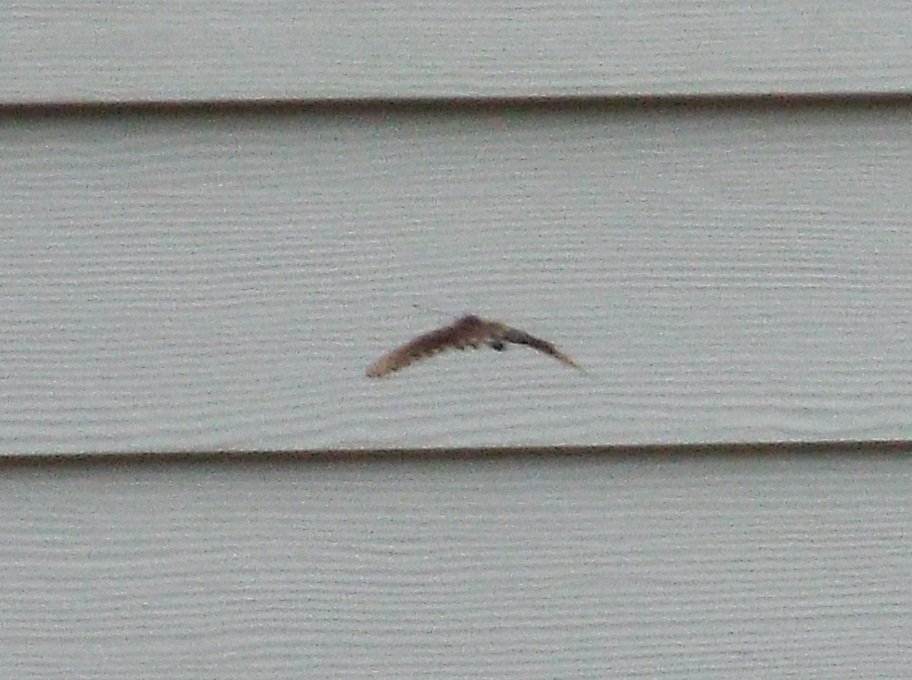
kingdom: Animalia
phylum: Arthropoda
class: Insecta
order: Lepidoptera
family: Papilionidae
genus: Pterourus
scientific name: Pterourus troilus
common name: Spicebush Swallowtail
